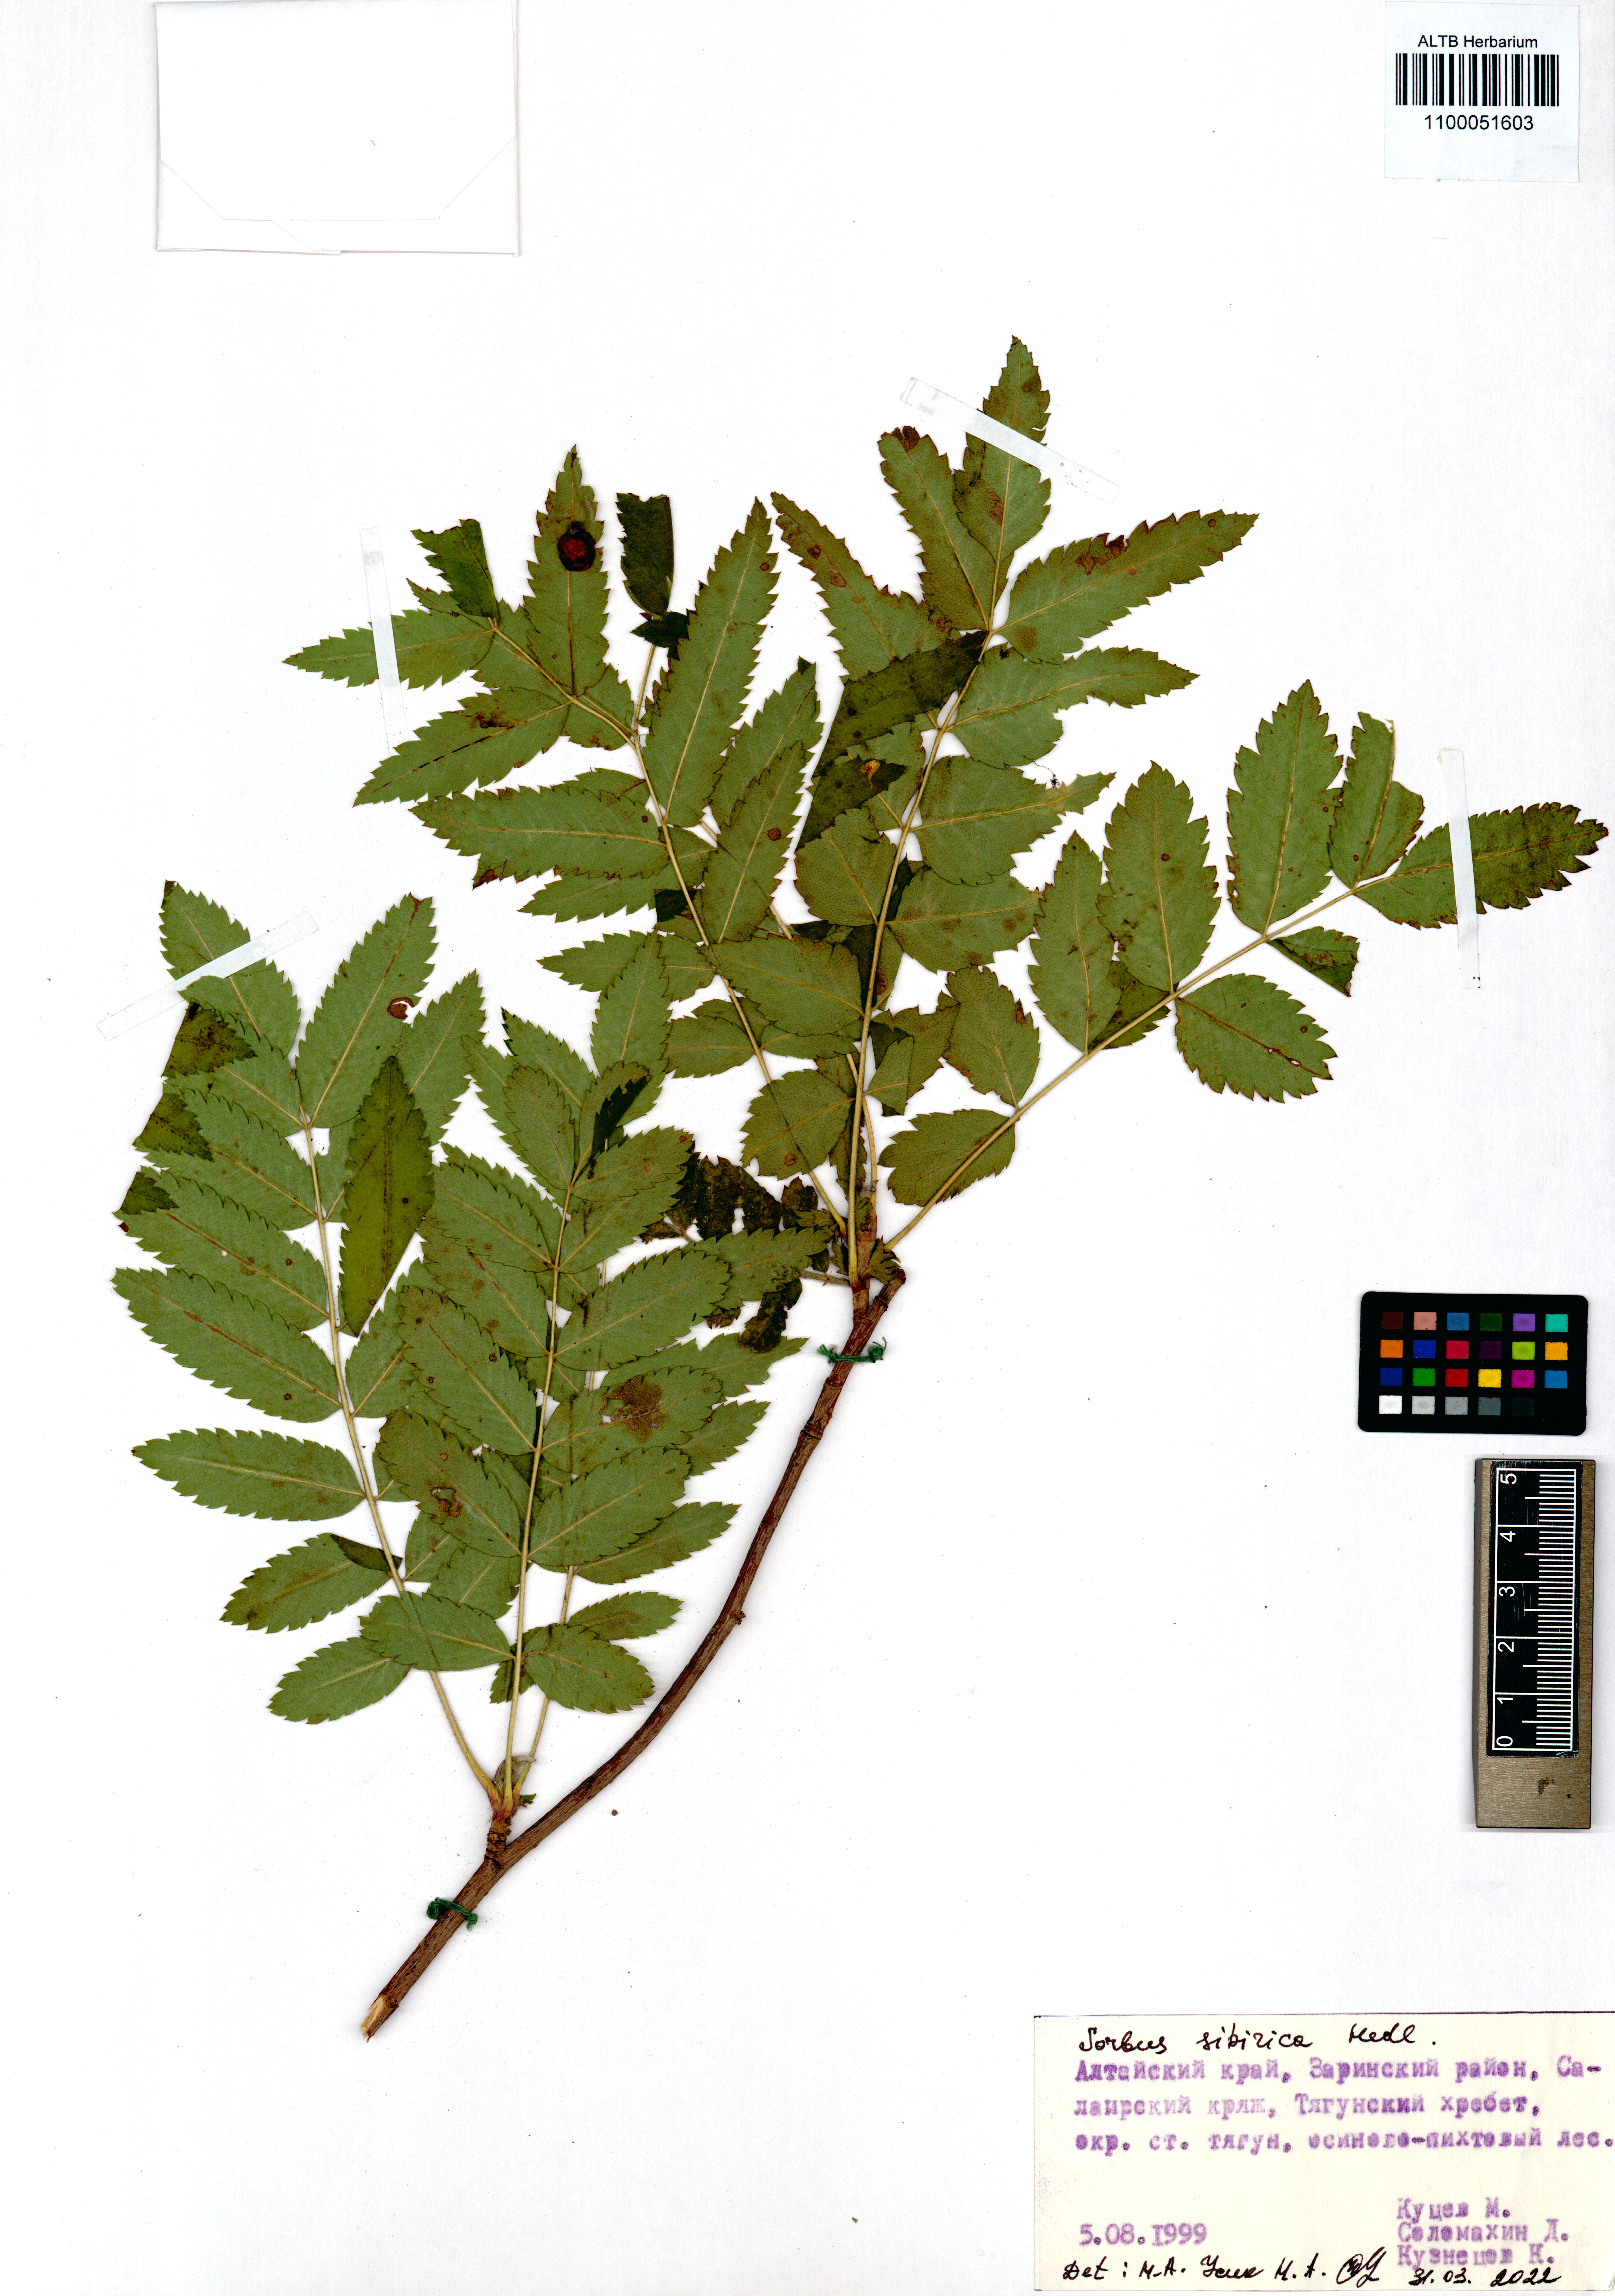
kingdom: Plantae
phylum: Tracheophyta
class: Magnoliopsida
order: Rosales
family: Rosaceae
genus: Sorbus
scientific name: Sorbus aucuparia
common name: Rowan
